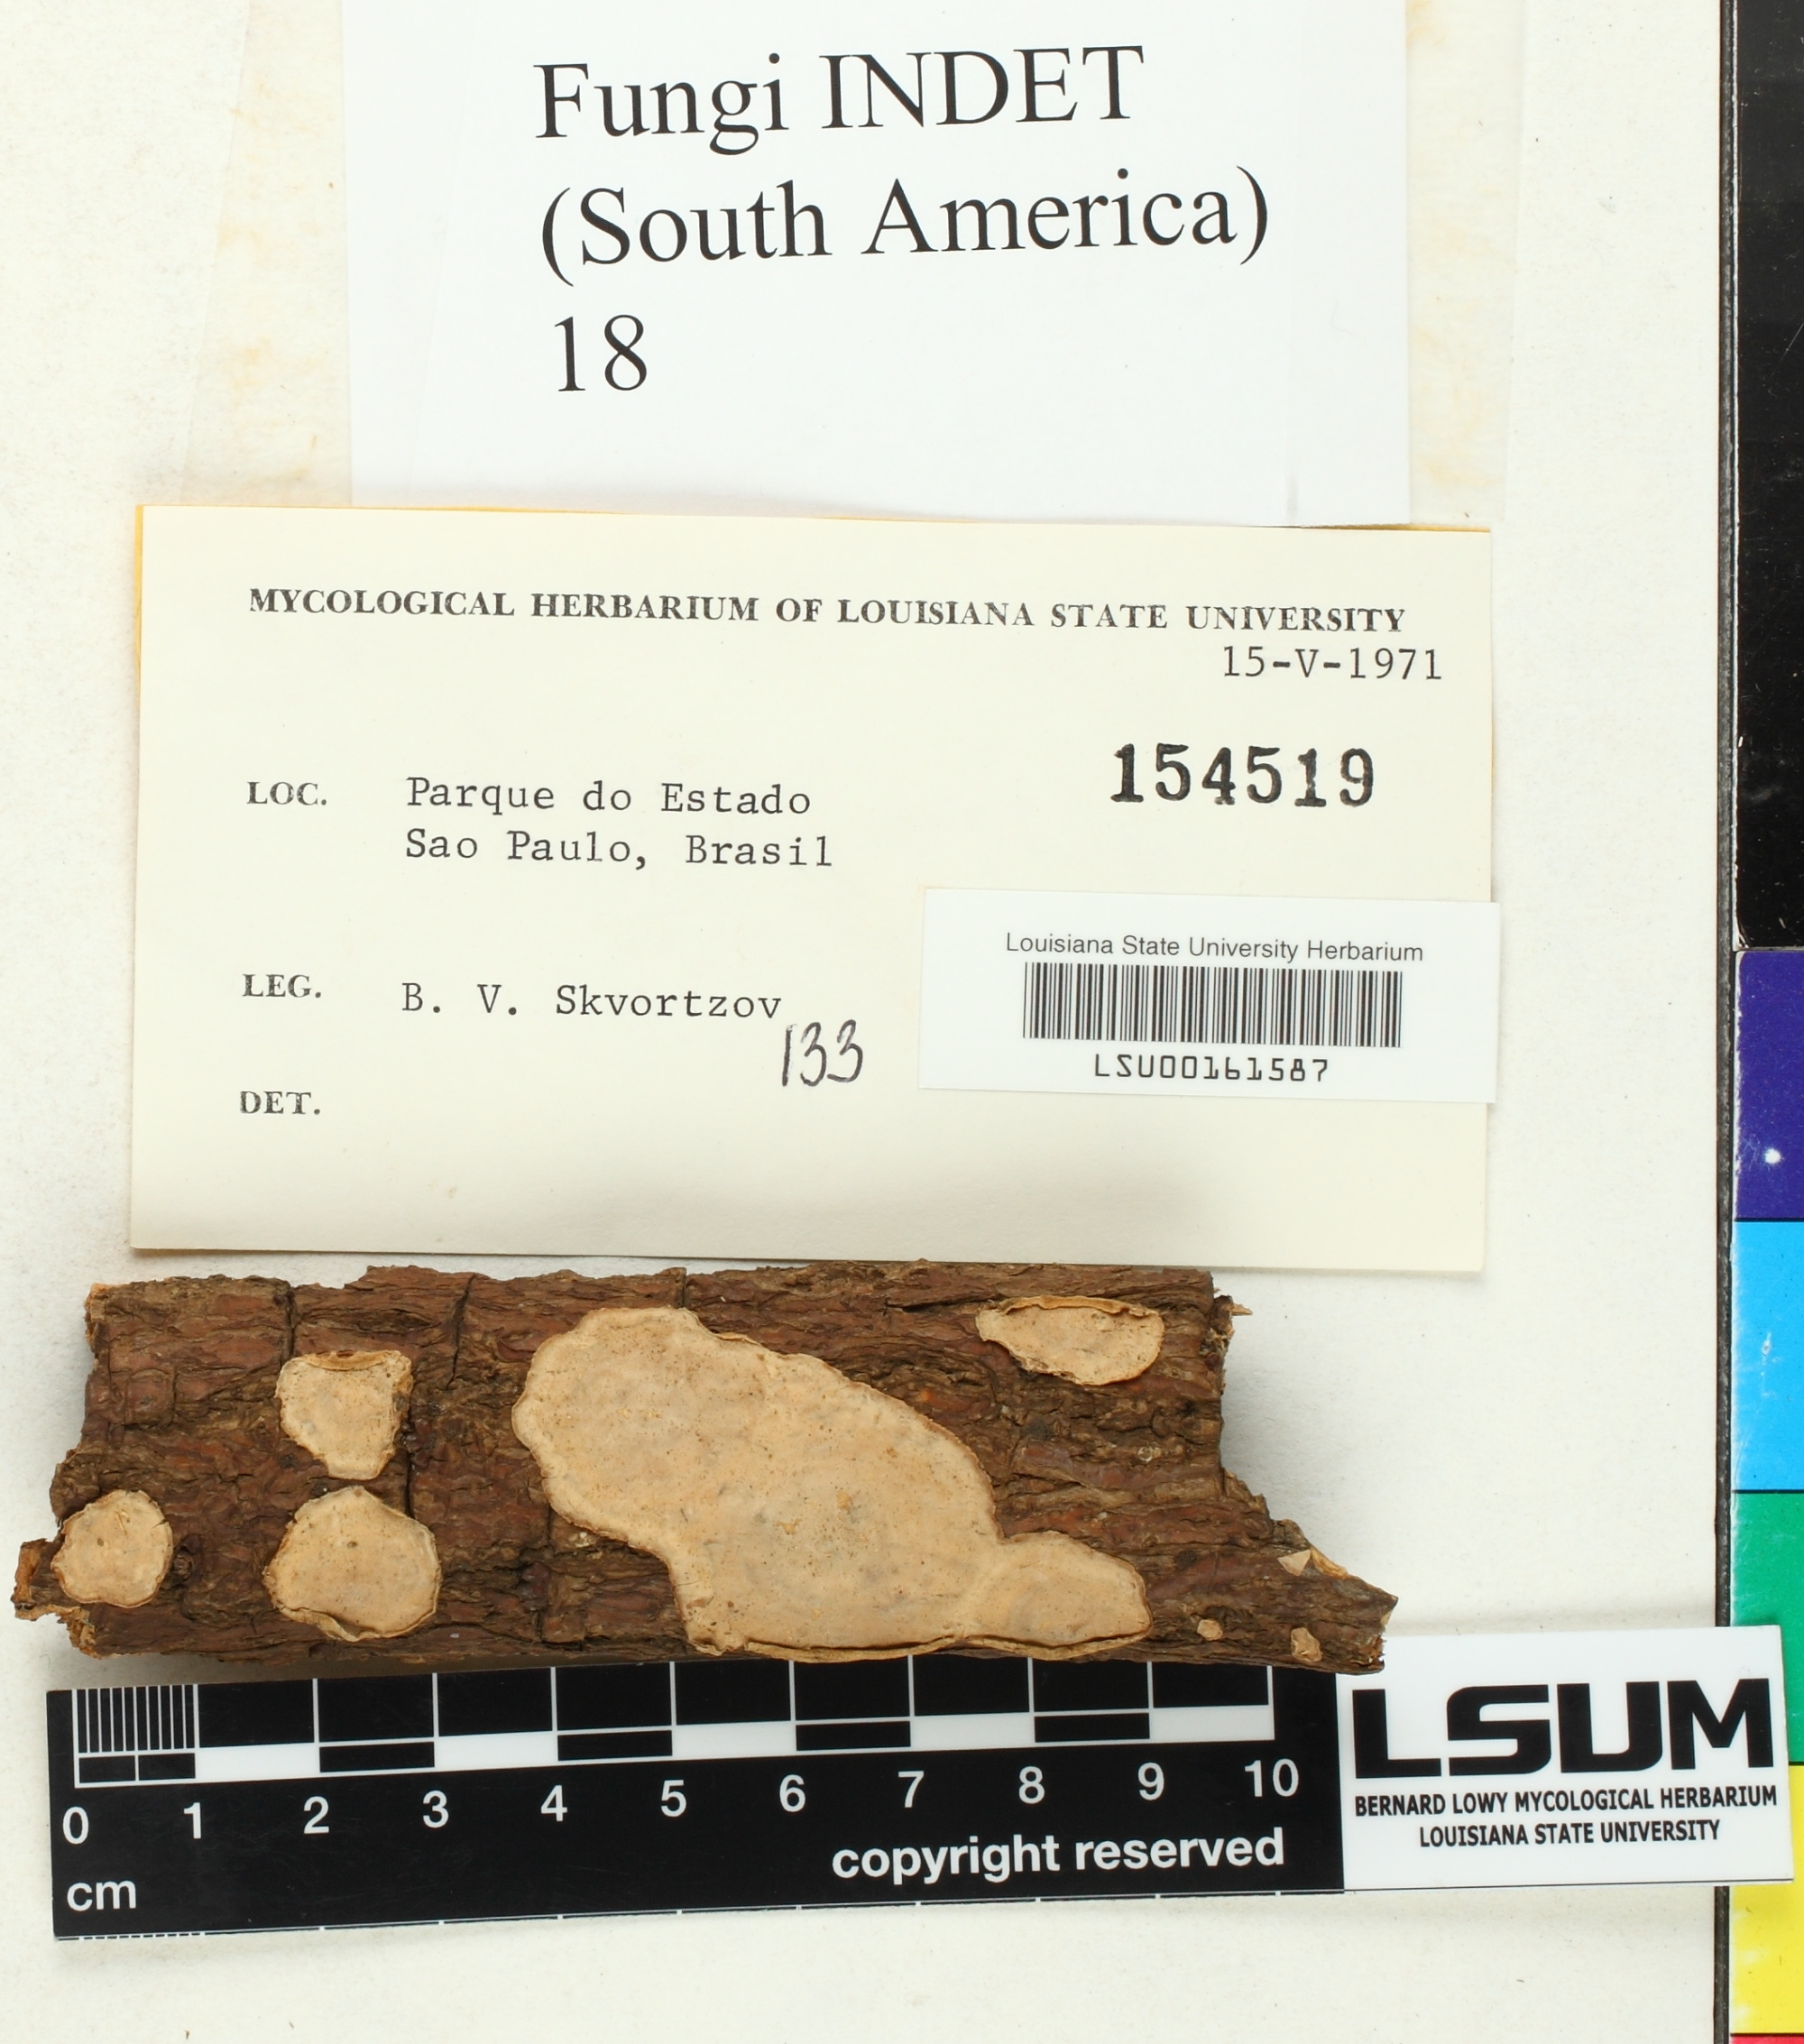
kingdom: Fungi
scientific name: Fungi
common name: Fungi
